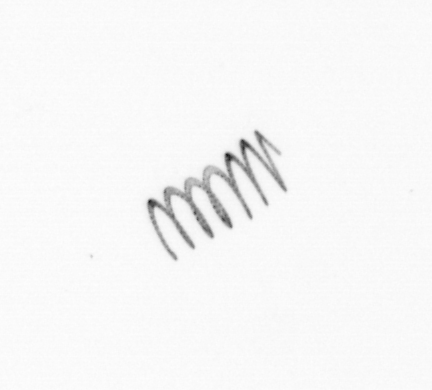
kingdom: Chromista
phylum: Ochrophyta
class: Bacillariophyceae
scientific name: Bacillariophyceae
